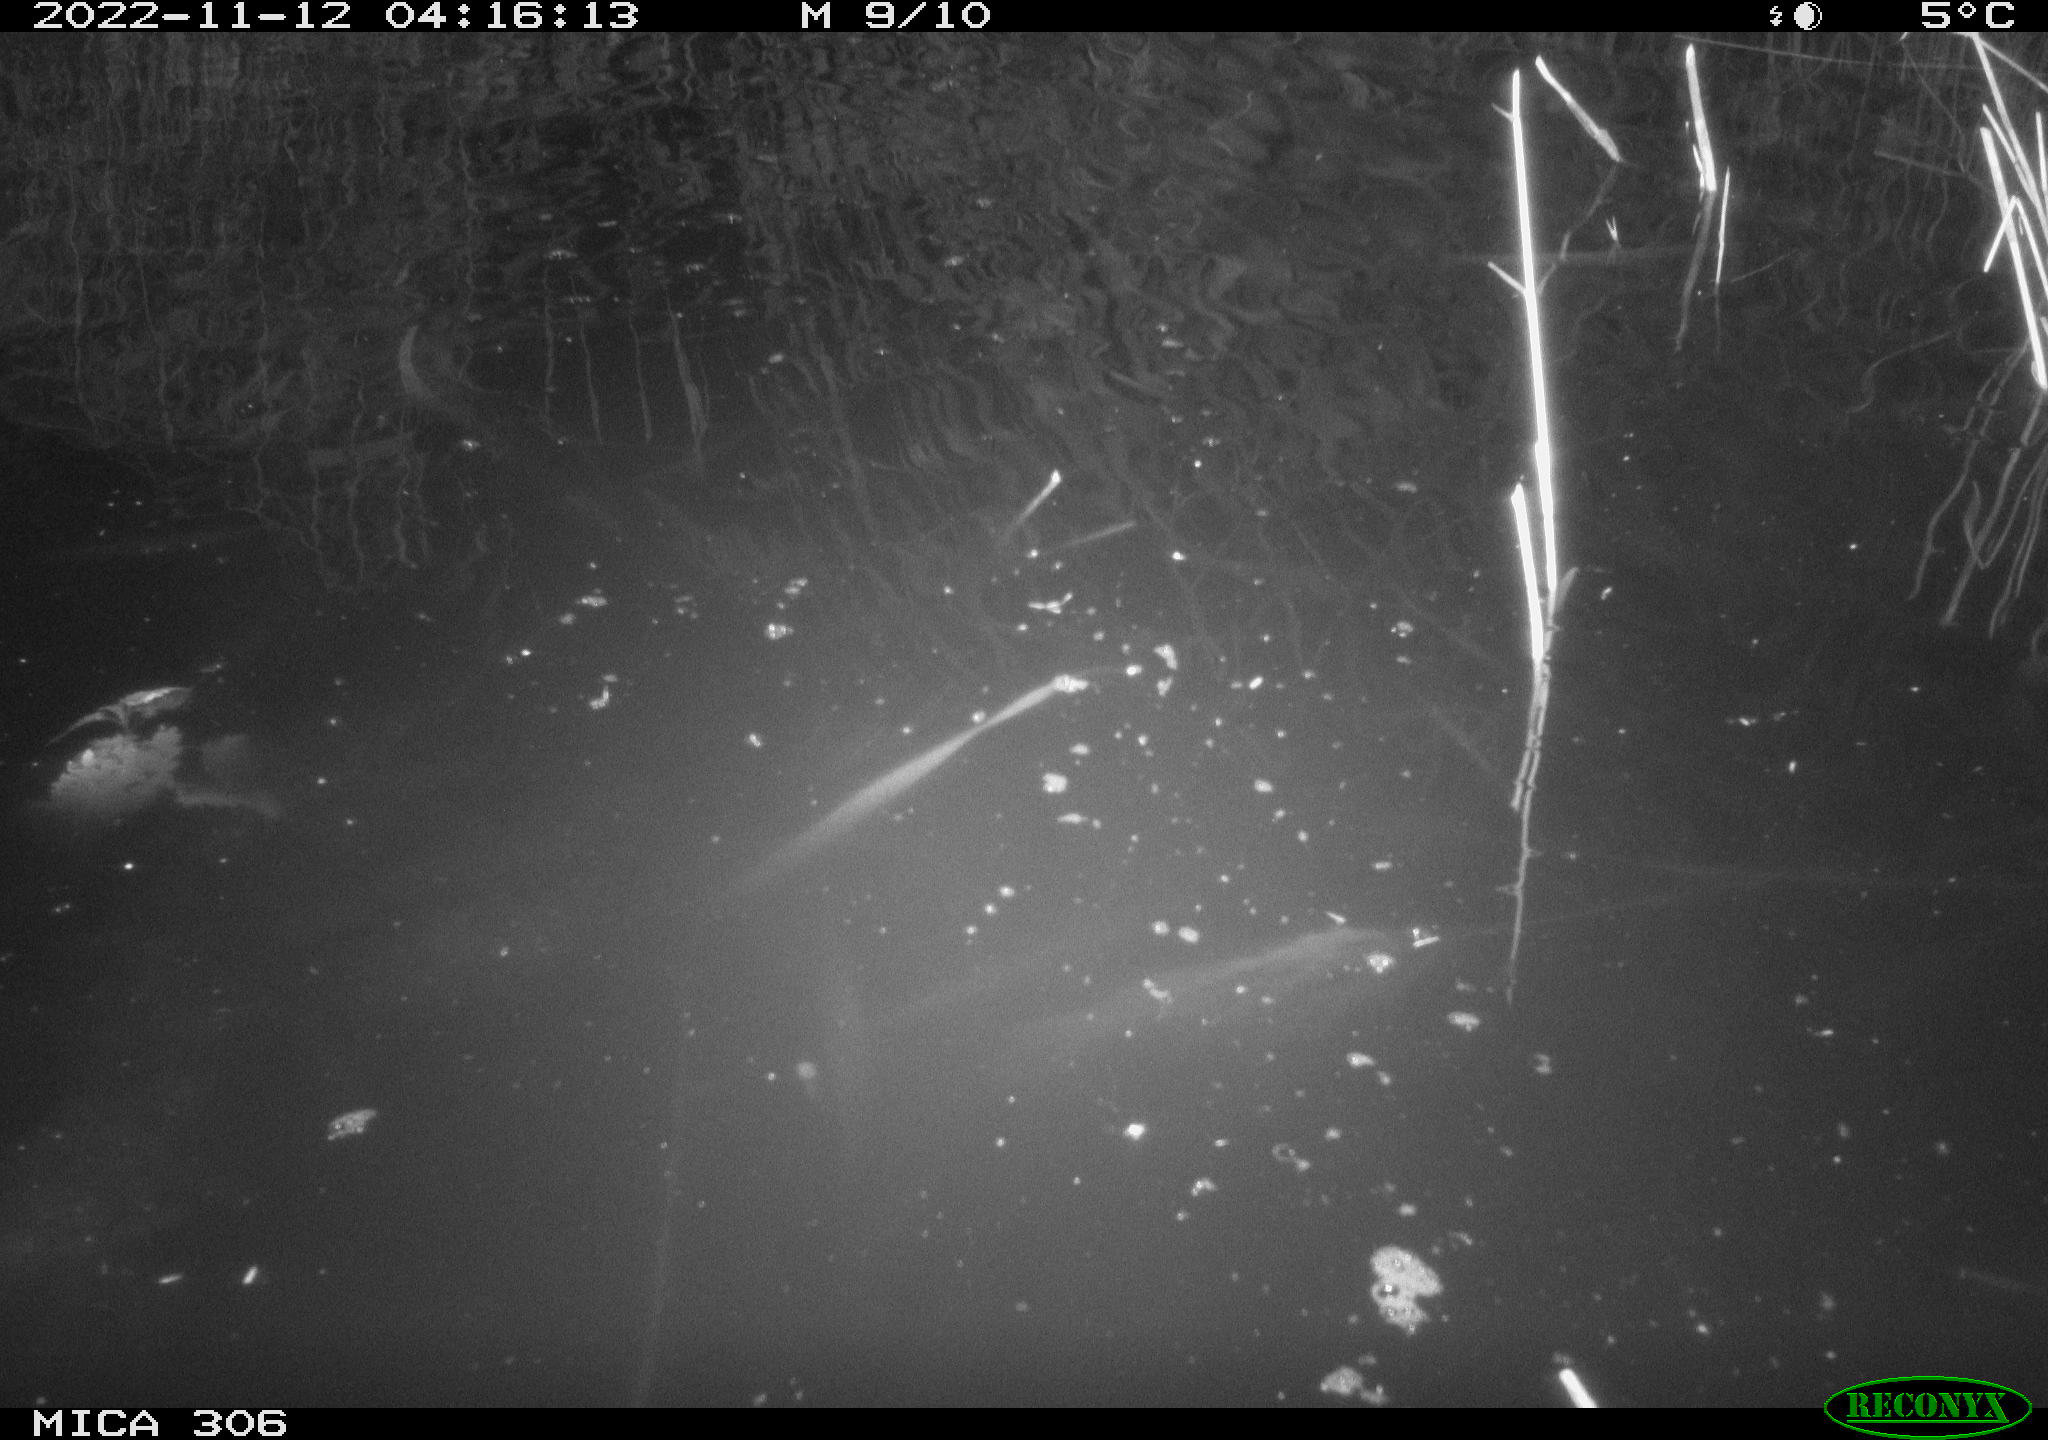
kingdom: Animalia
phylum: Chordata
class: Mammalia
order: Rodentia
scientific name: Rodentia
